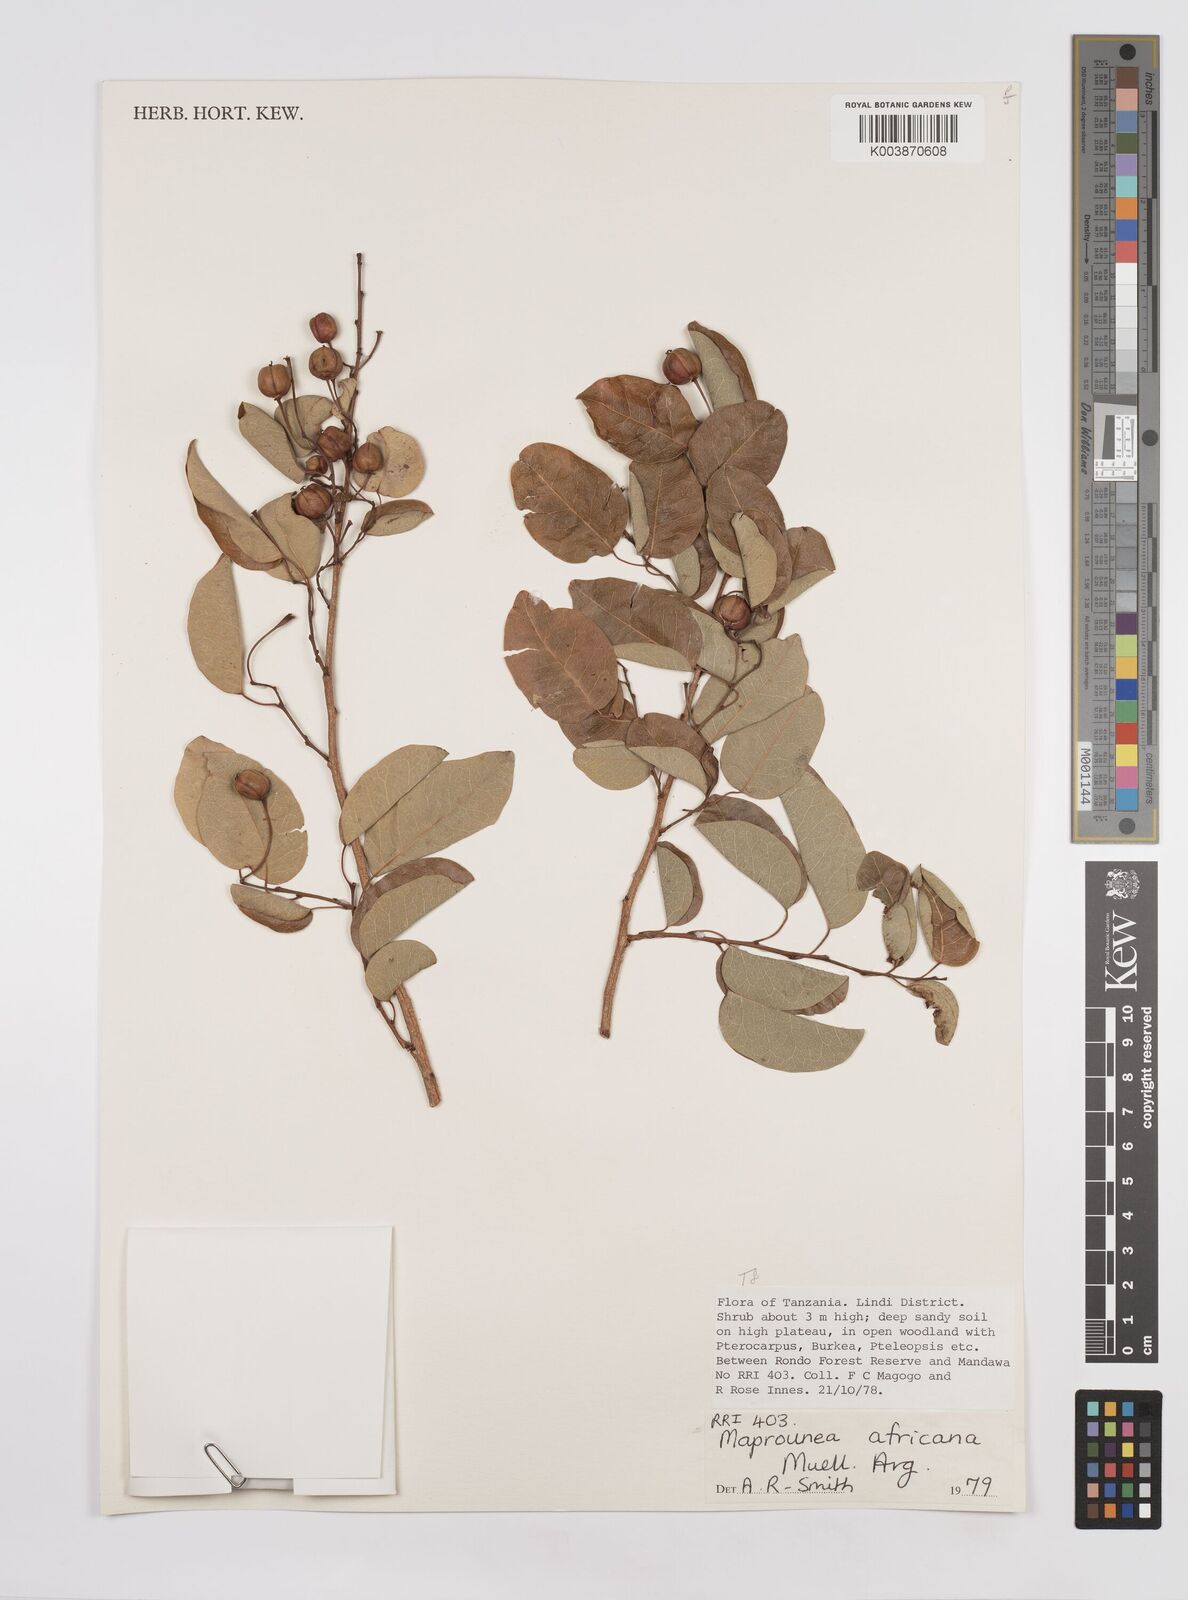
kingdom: Plantae
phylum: Tracheophyta
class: Magnoliopsida
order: Malpighiales
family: Euphorbiaceae
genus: Maprounea
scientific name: Maprounea africana
